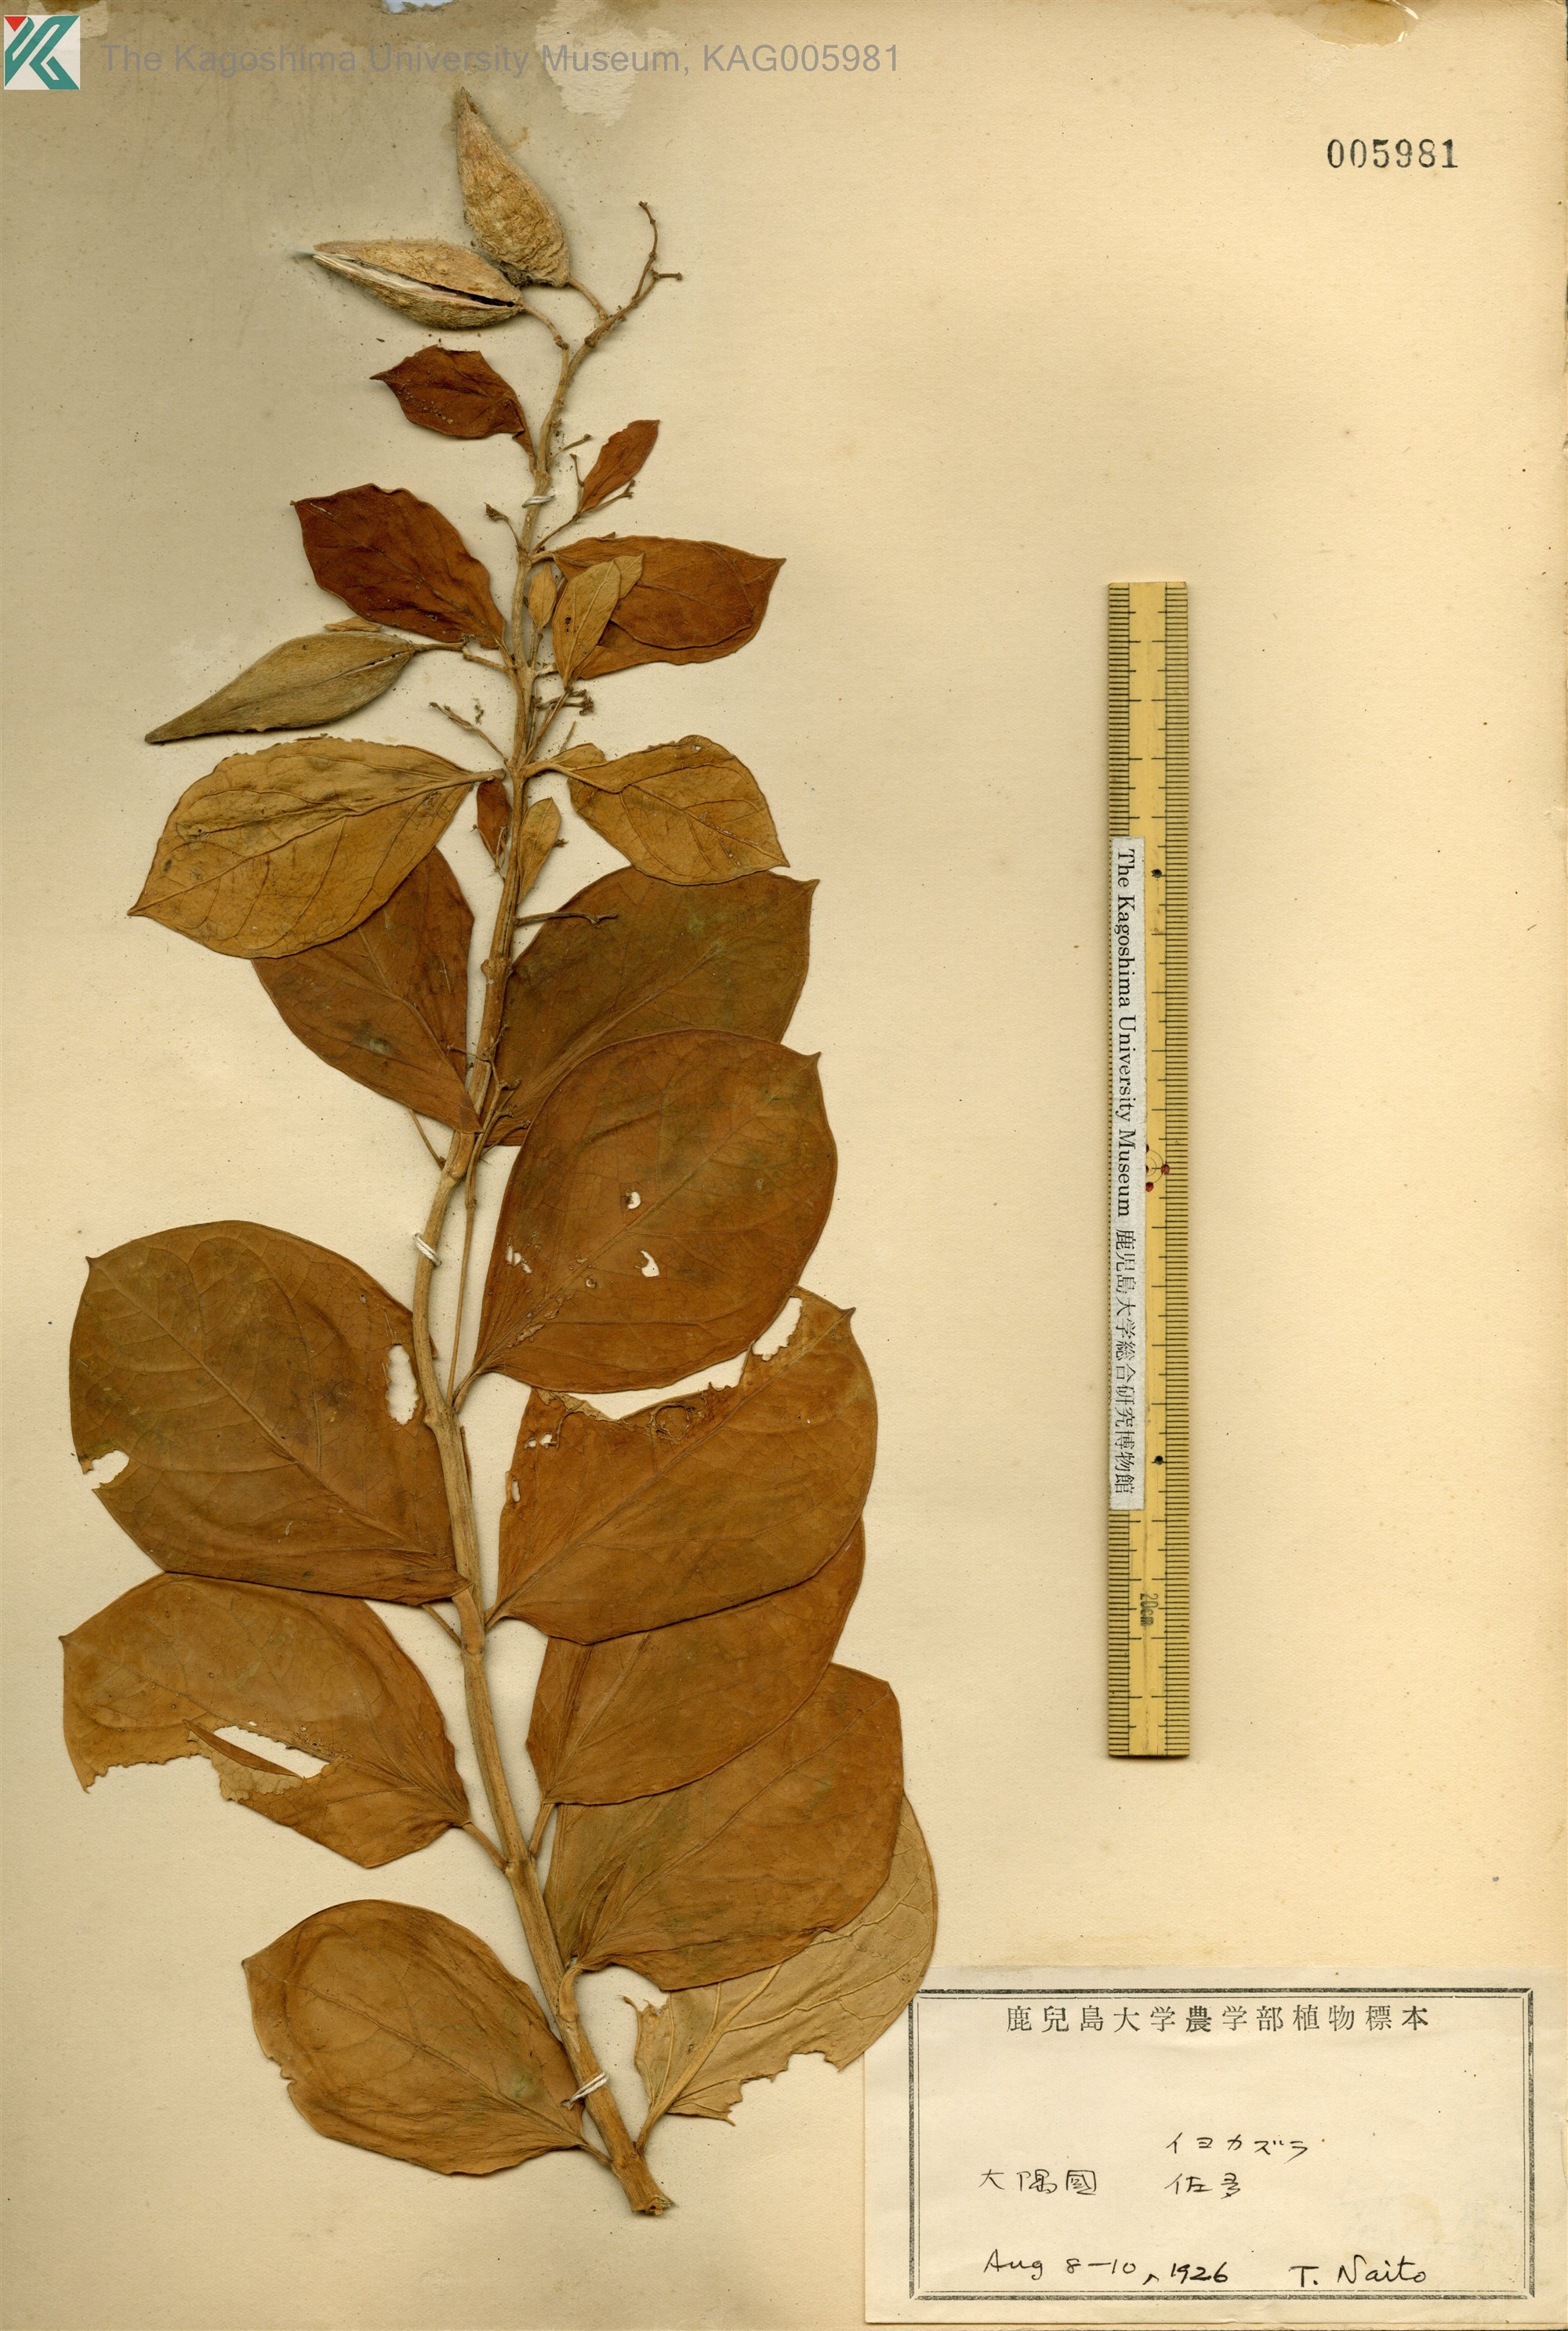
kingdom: Plantae
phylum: Tracheophyta
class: Magnoliopsida
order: Gentianales
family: Apocynaceae
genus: Vincetoxicum
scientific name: Vincetoxicum japonicum
